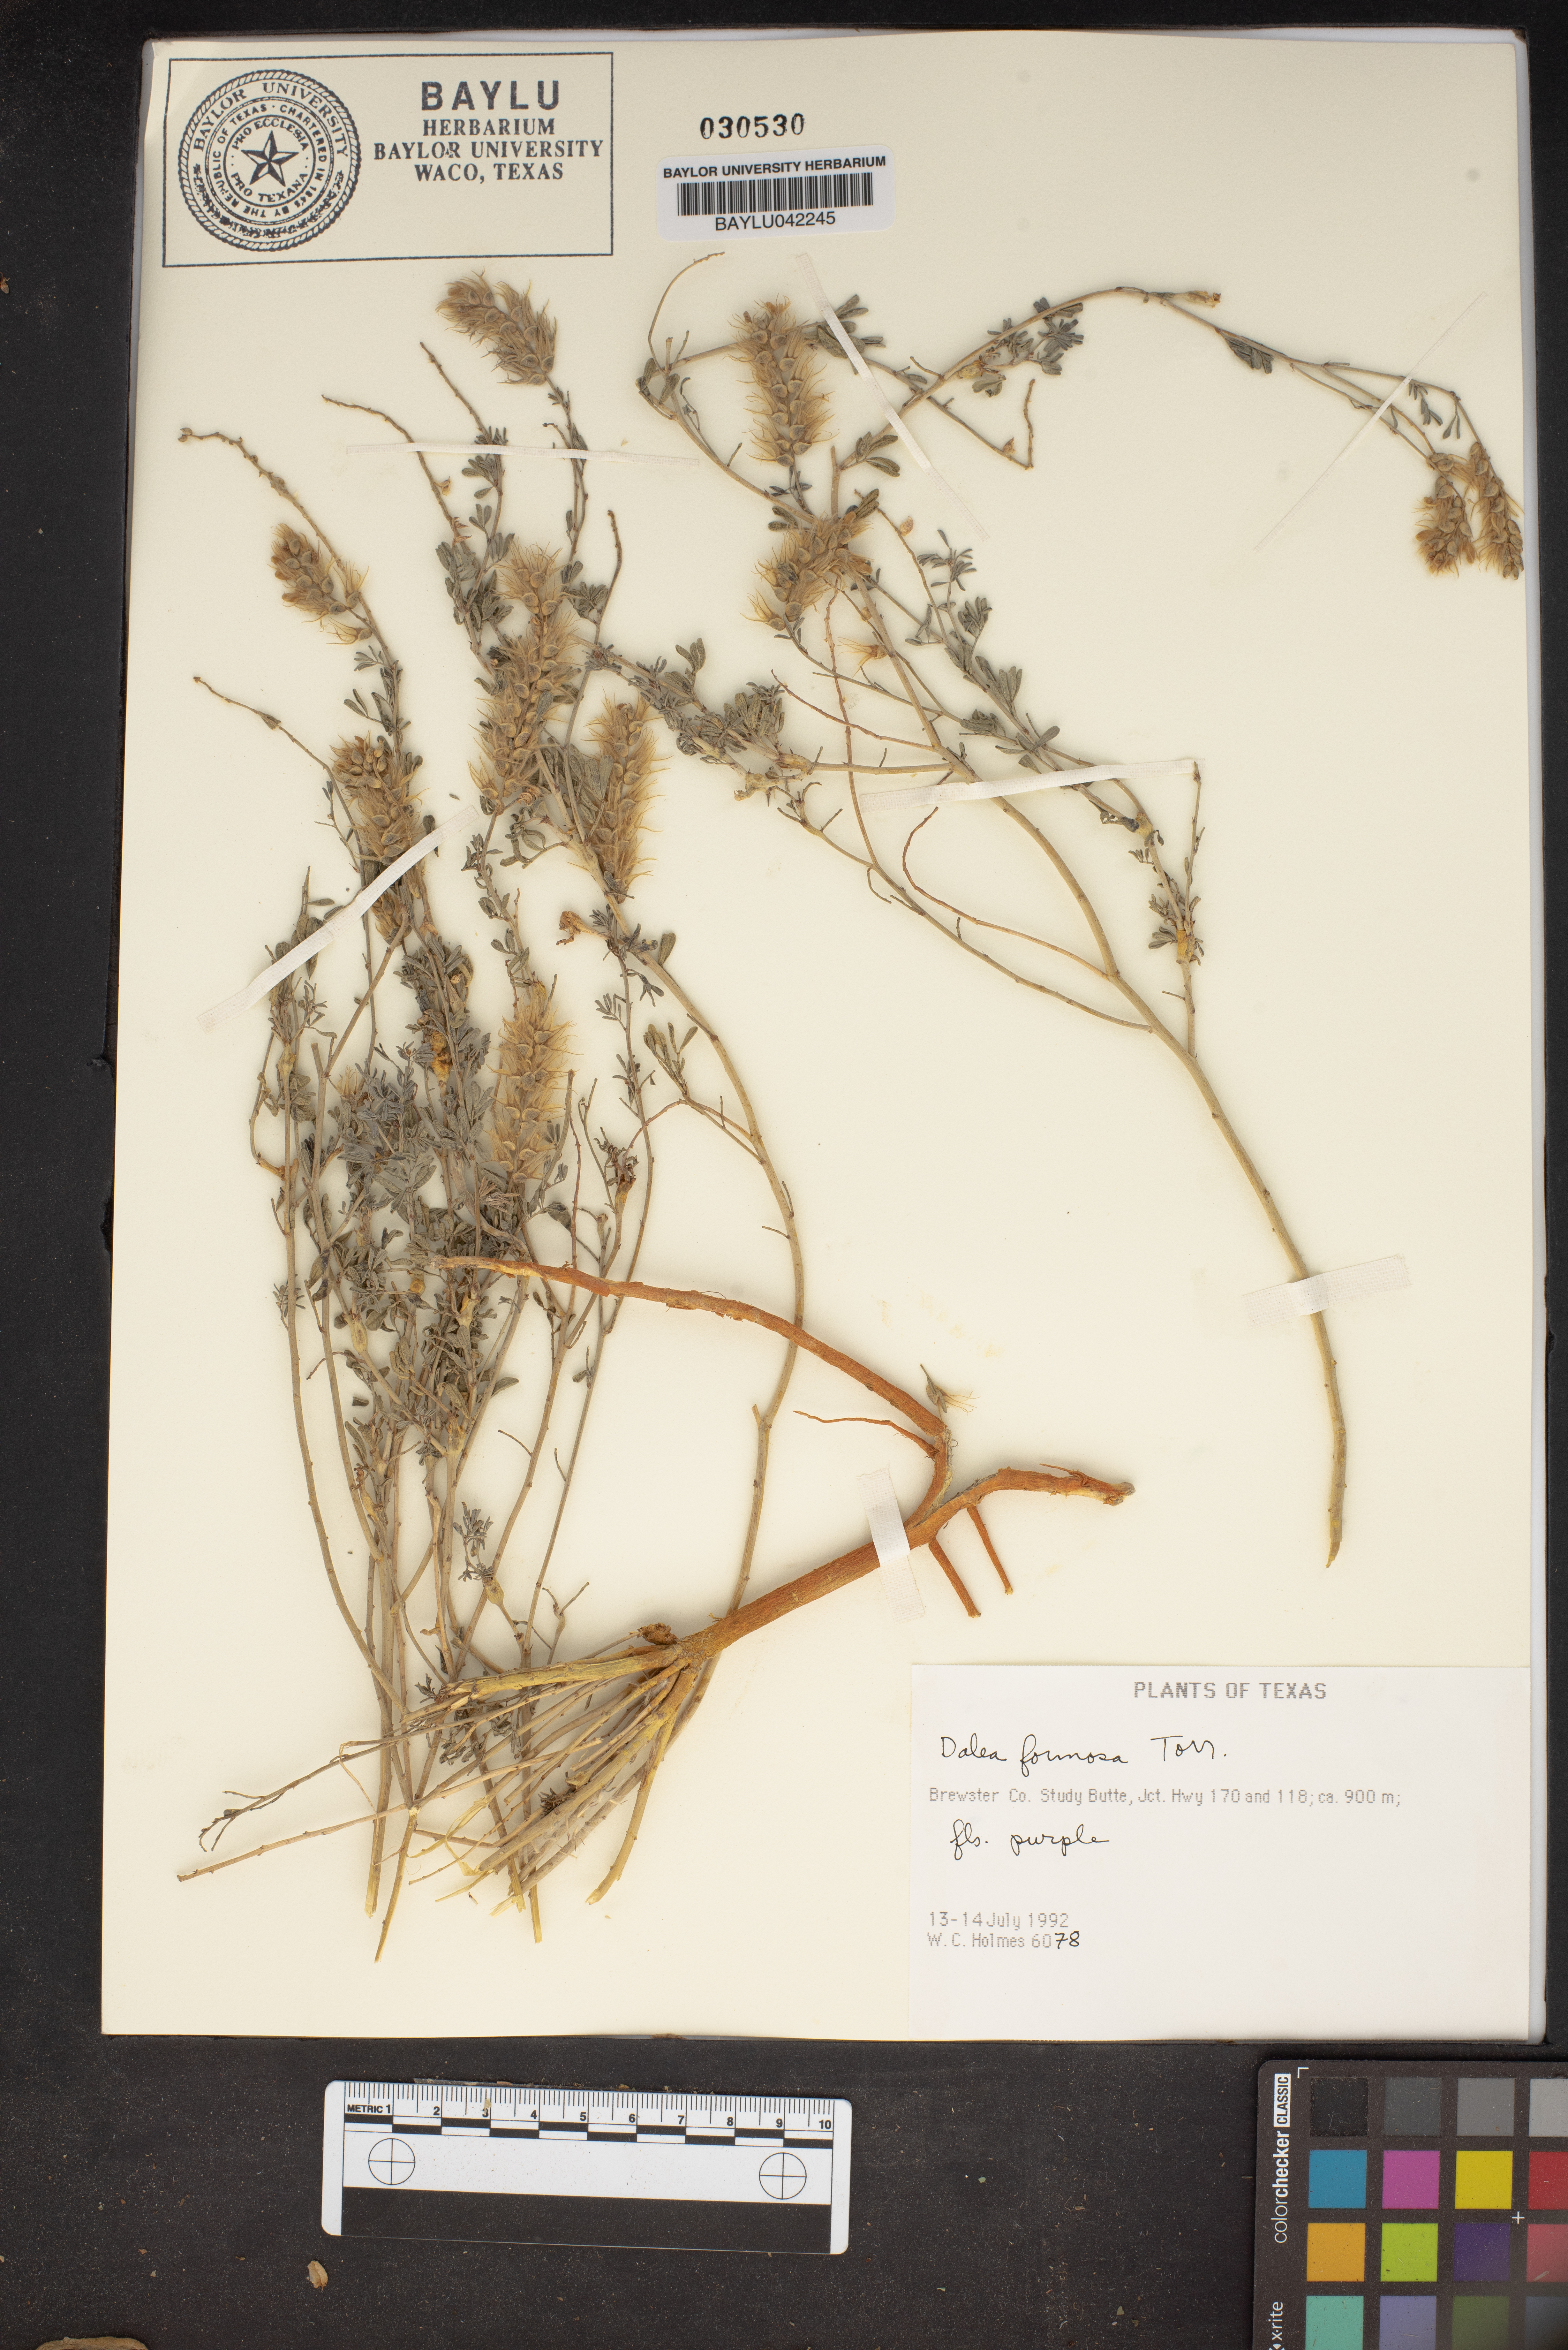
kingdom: Plantae
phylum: Tracheophyta
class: Magnoliopsida
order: Fabales
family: Fabaceae
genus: Dalea
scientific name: Dalea formosa
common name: Feather-plume dalea
